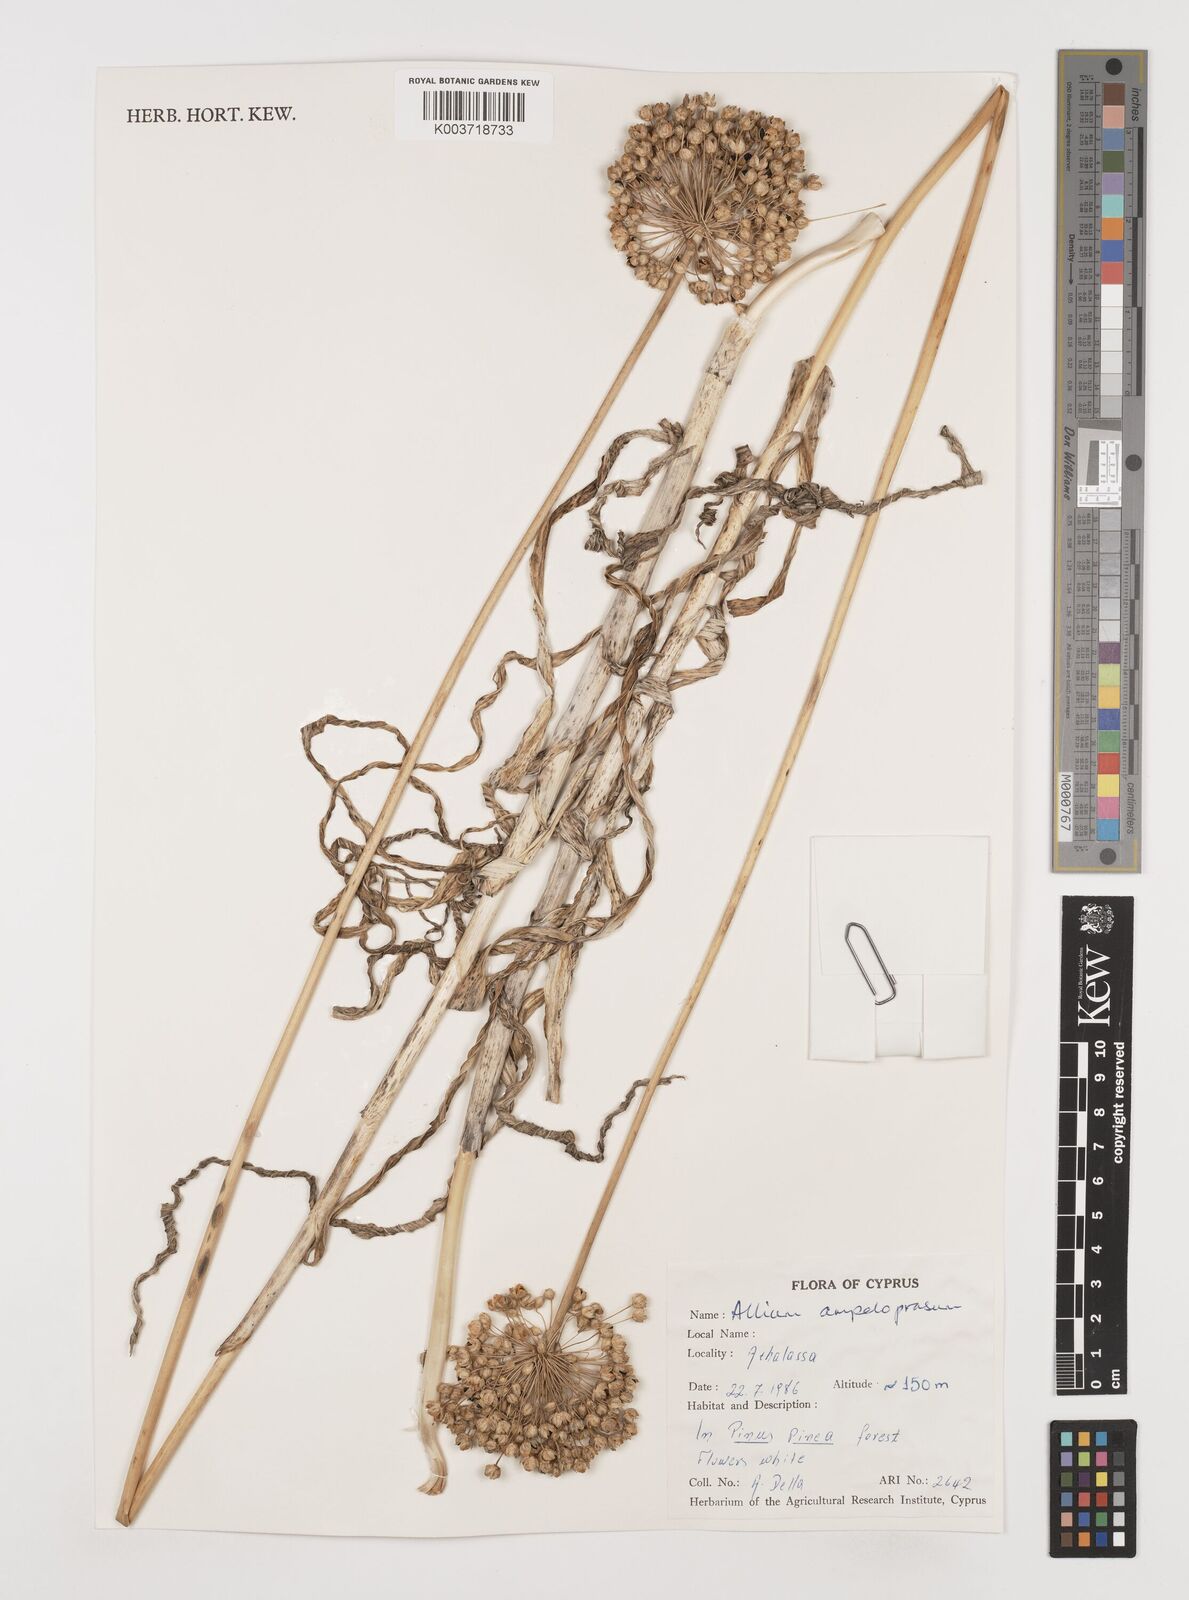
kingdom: Plantae
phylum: Tracheophyta
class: Liliopsida
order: Asparagales
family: Amaryllidaceae
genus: Allium
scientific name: Allium ampeloprasum
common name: Wild leek
